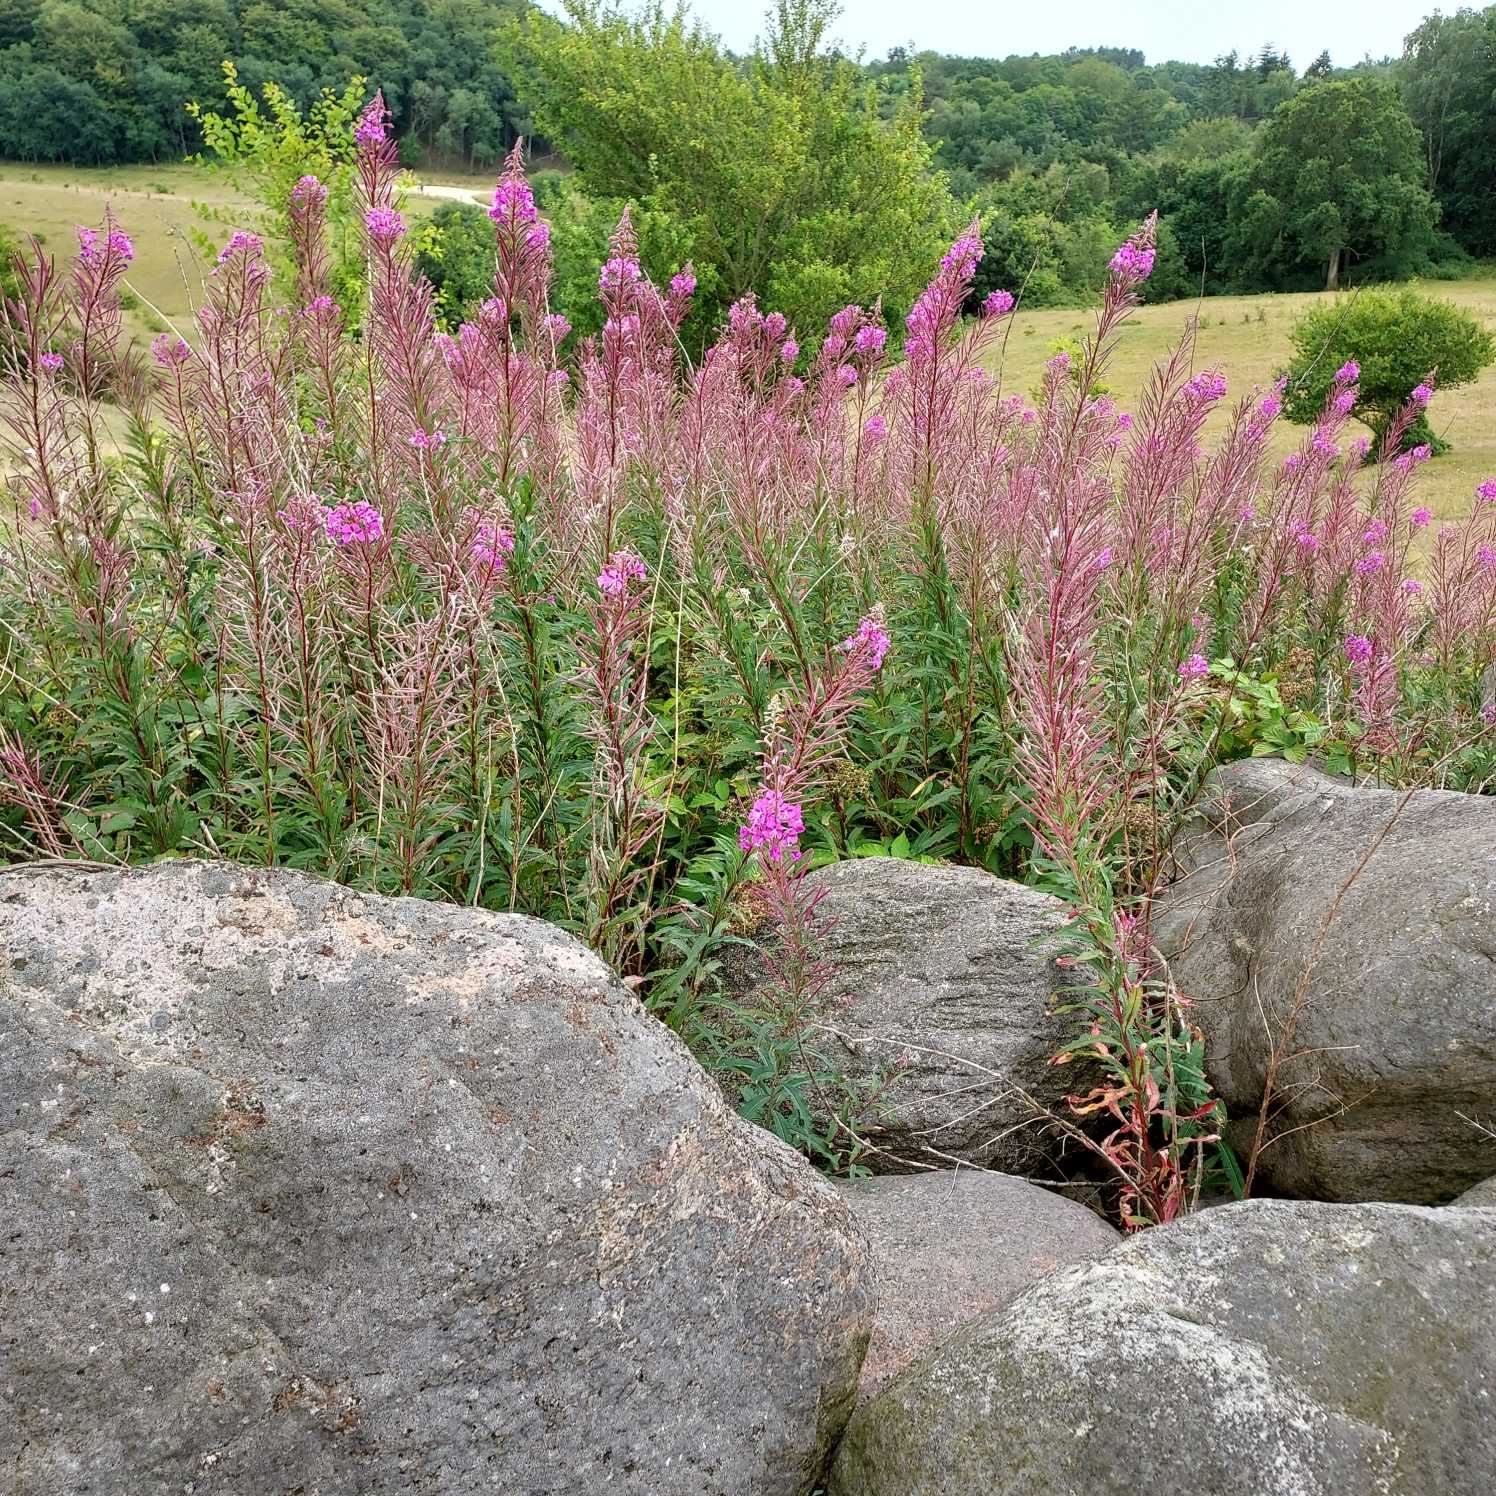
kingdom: Plantae
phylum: Tracheophyta
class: Magnoliopsida
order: Myrtales
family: Onagraceae
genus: Chamaenerion
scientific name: Chamaenerion angustifolium
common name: Gederams
